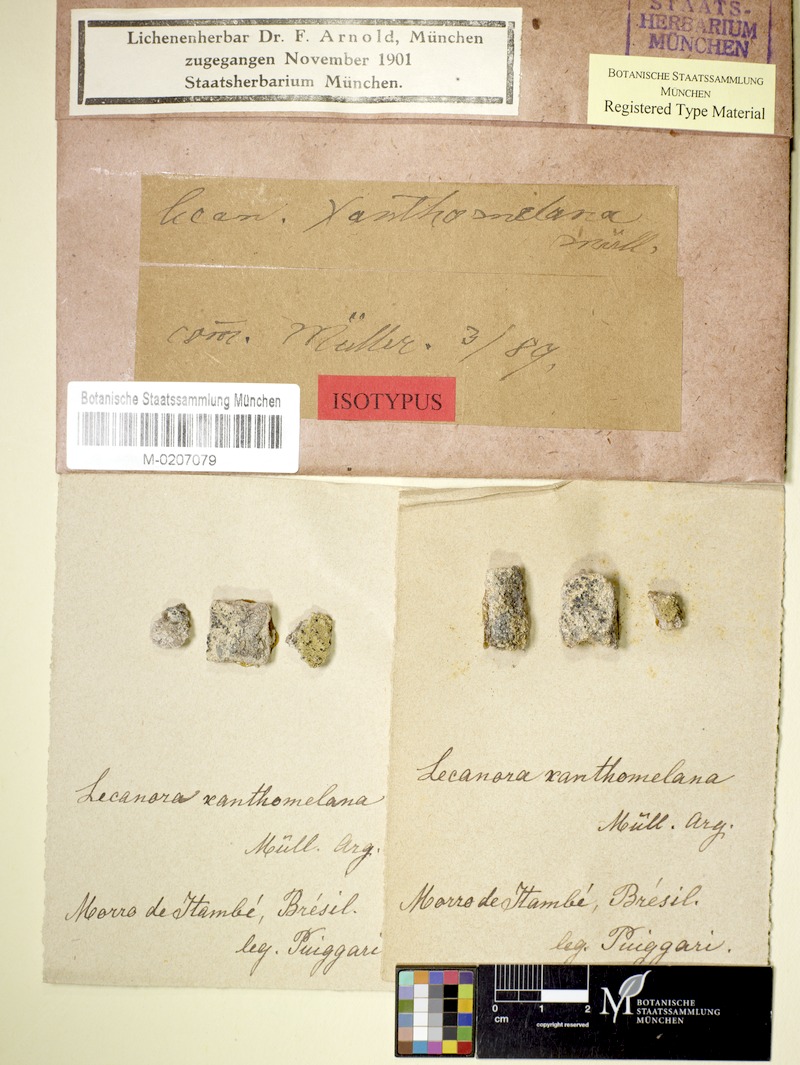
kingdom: Fungi
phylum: Ascomycota
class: Lecanoromycetes
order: Lecanorales
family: Lecanoraceae
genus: Lecanora
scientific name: Lecanora
